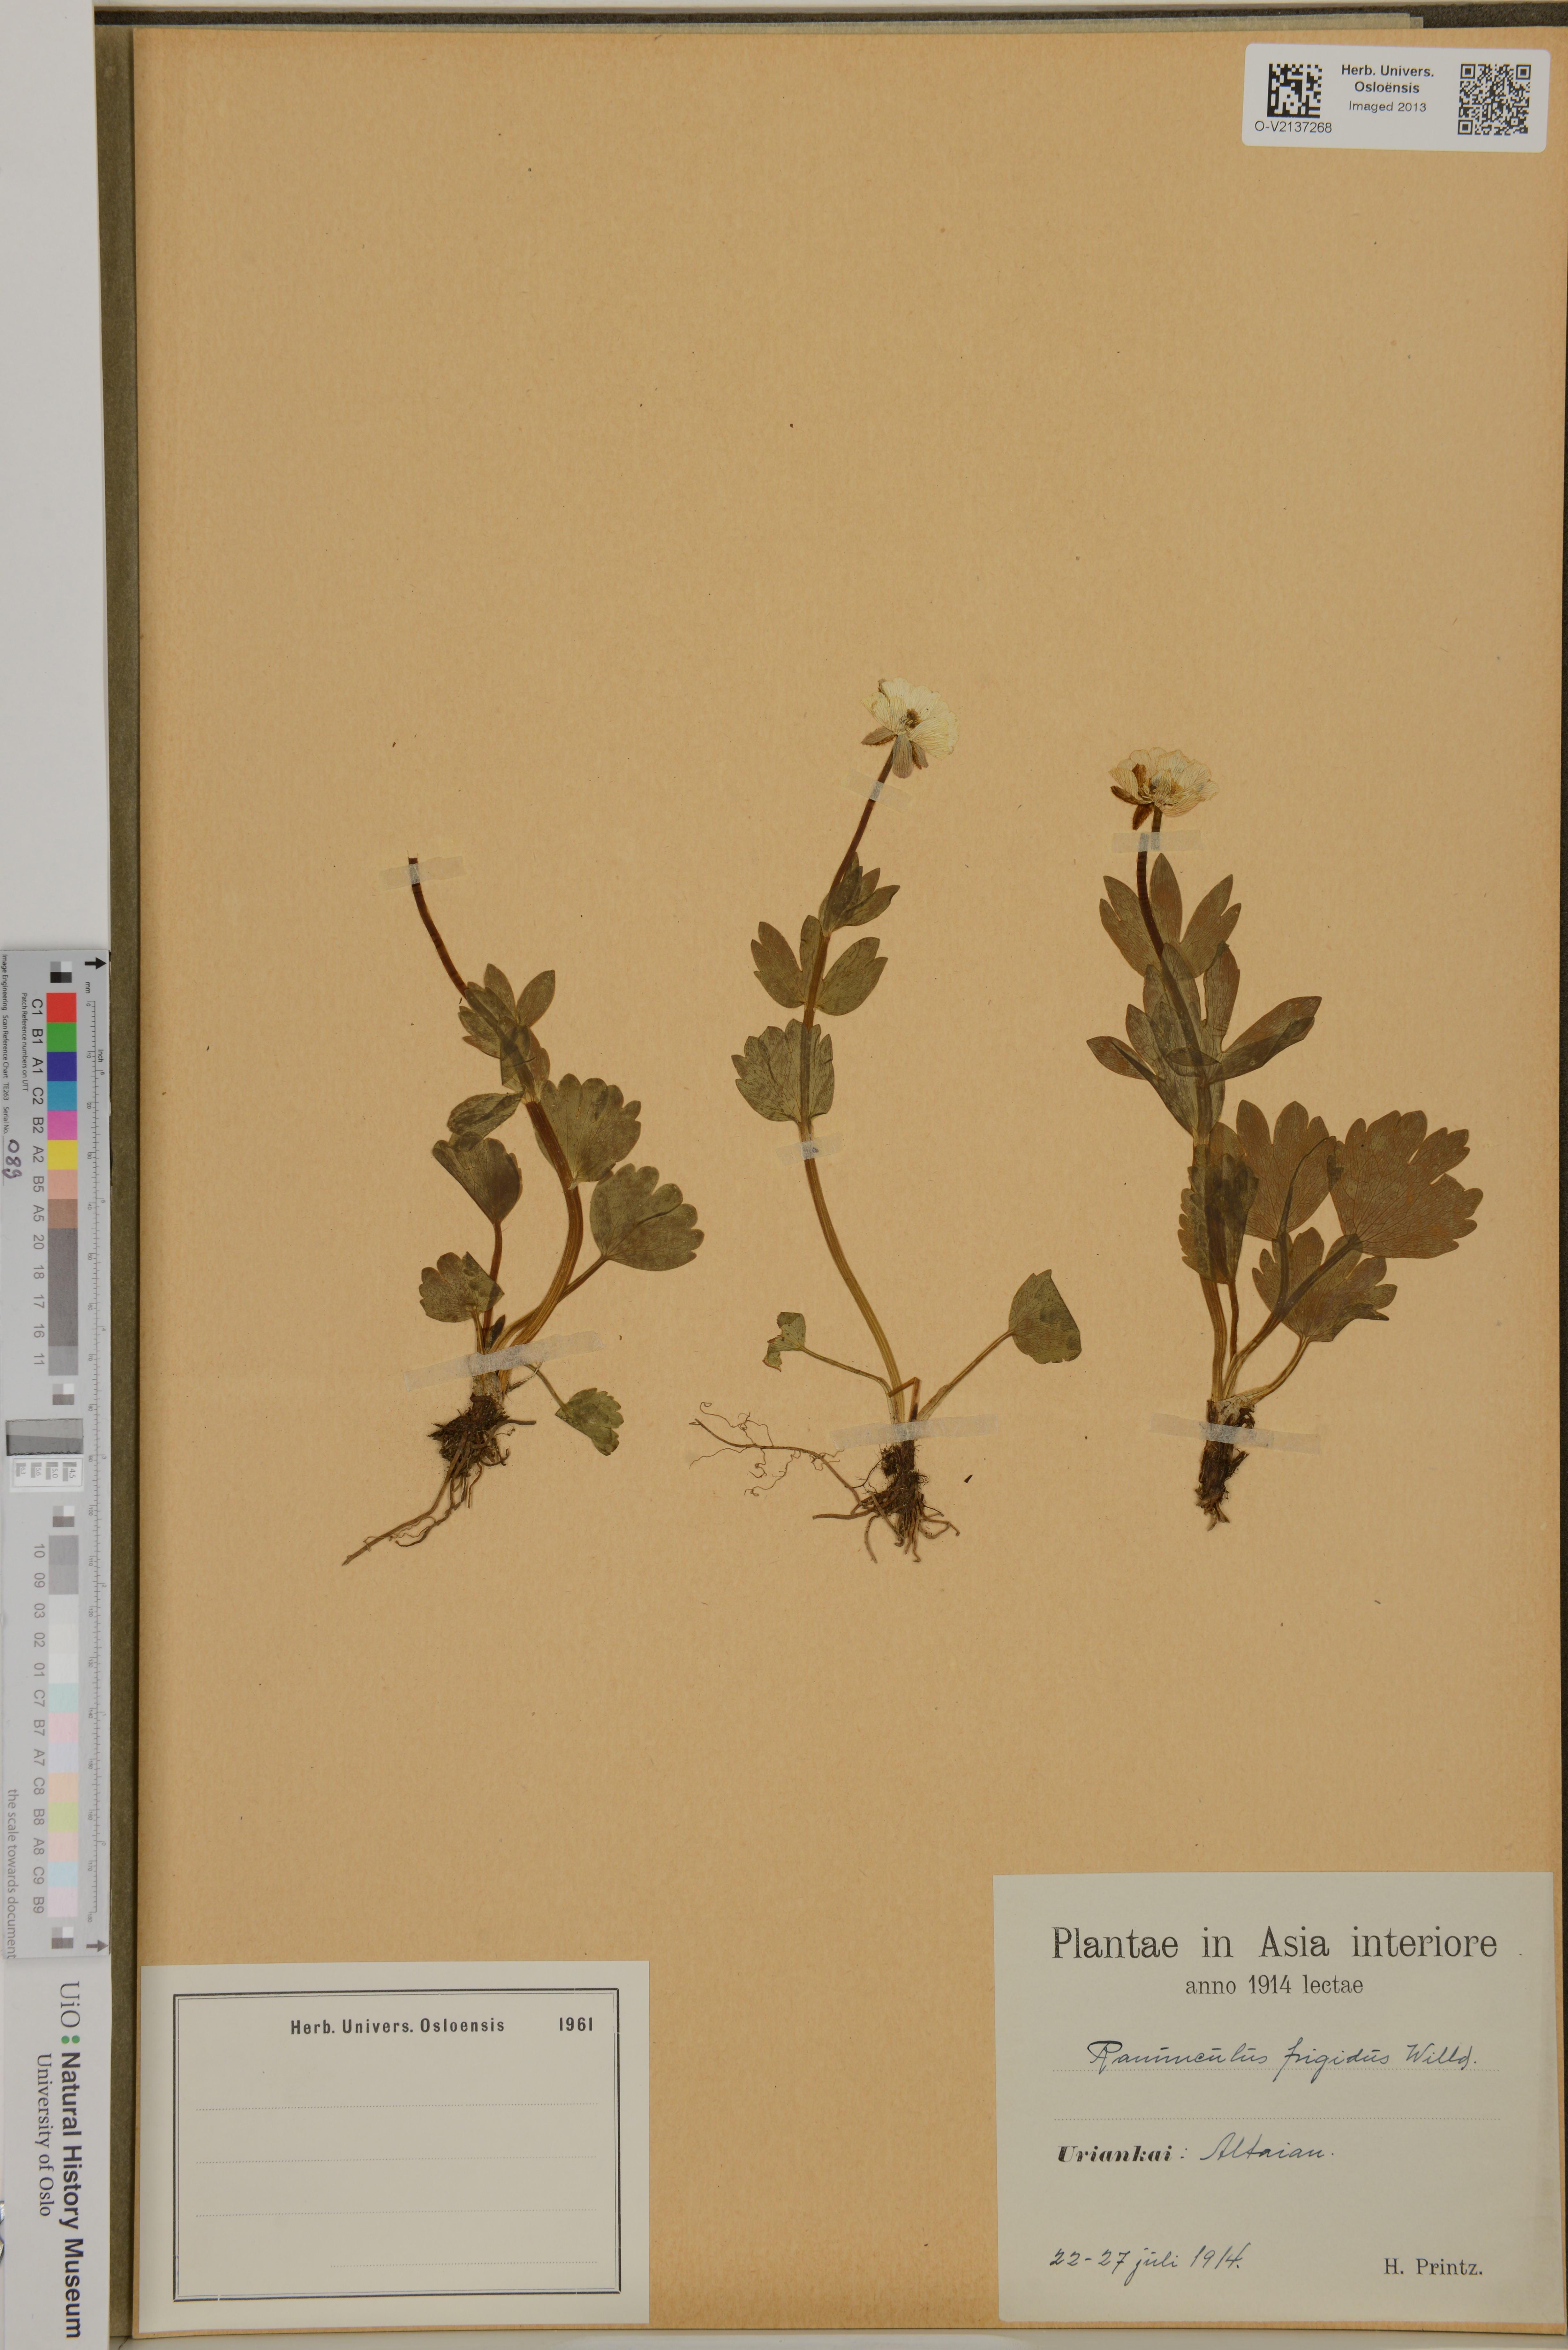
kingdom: Plantae
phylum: Tracheophyta
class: Magnoliopsida
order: Ranunculales
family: Ranunculaceae
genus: Ranunculus
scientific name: Ranunculus
